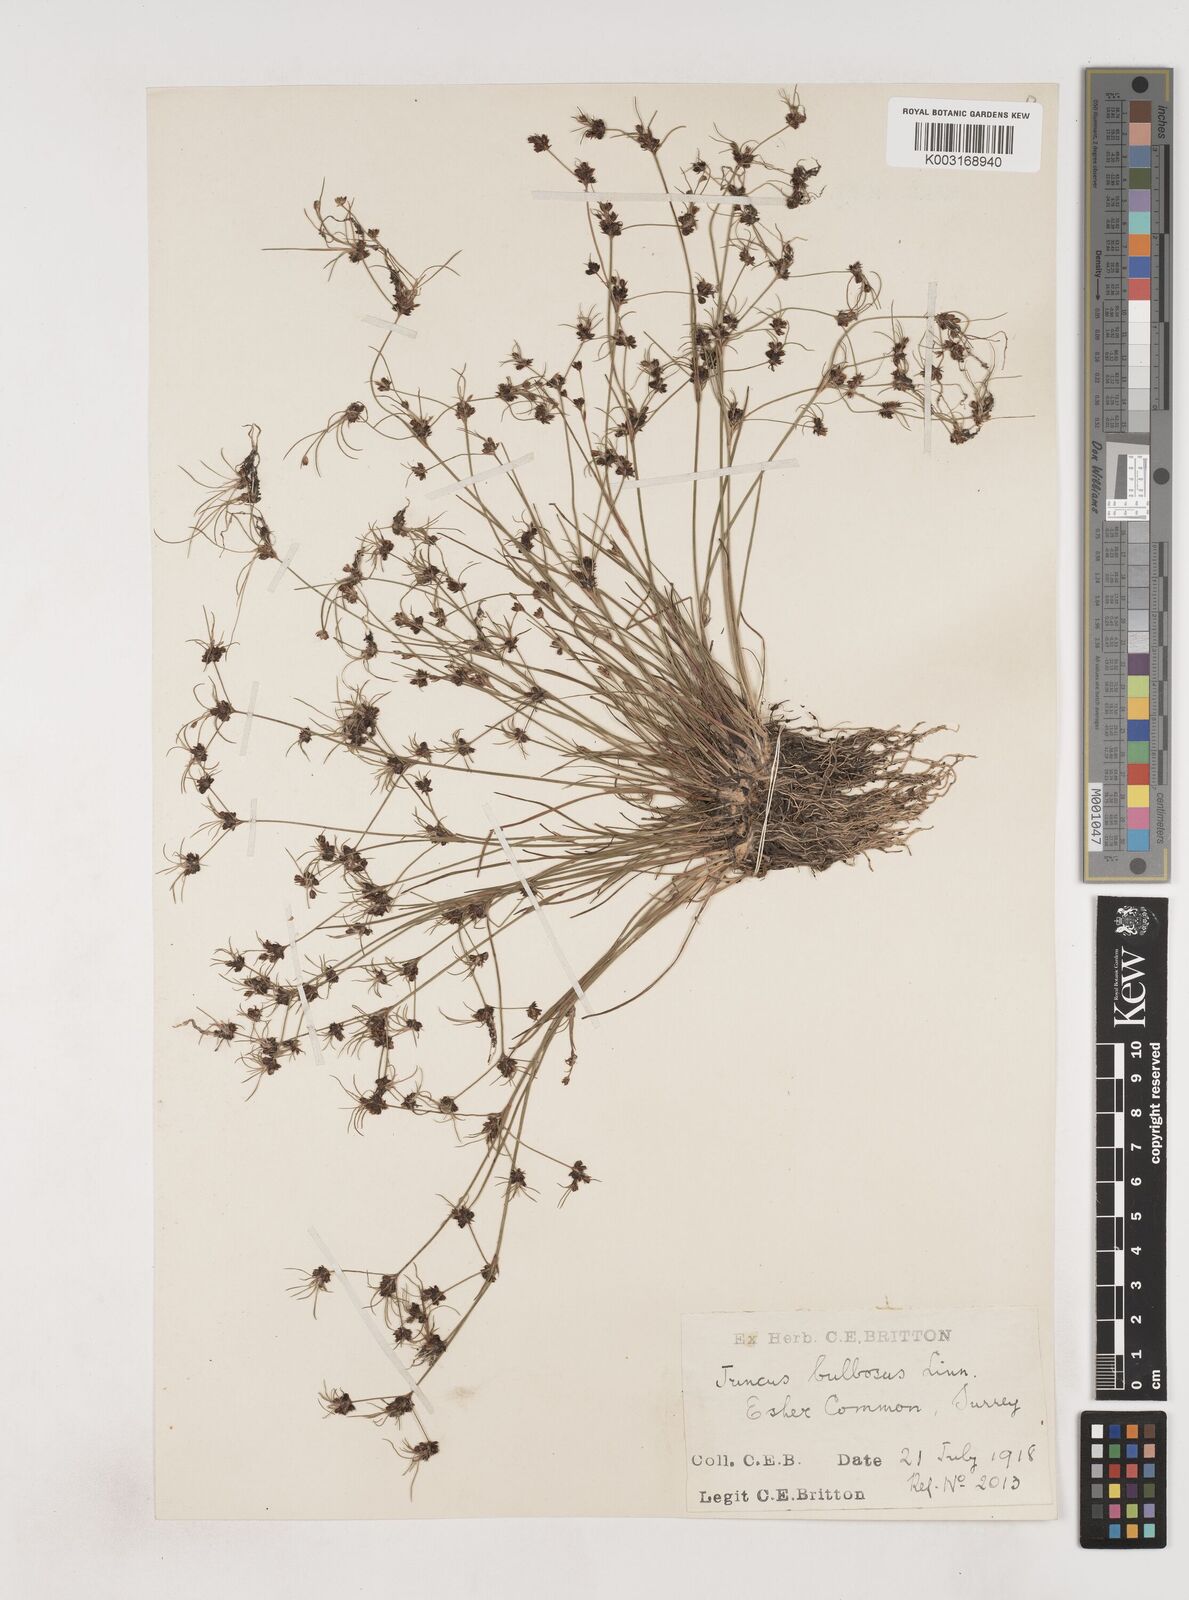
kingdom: Plantae
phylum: Tracheophyta
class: Liliopsida
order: Poales
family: Juncaceae
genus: Juncus
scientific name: Juncus bulbosus
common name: Bulbous rush
